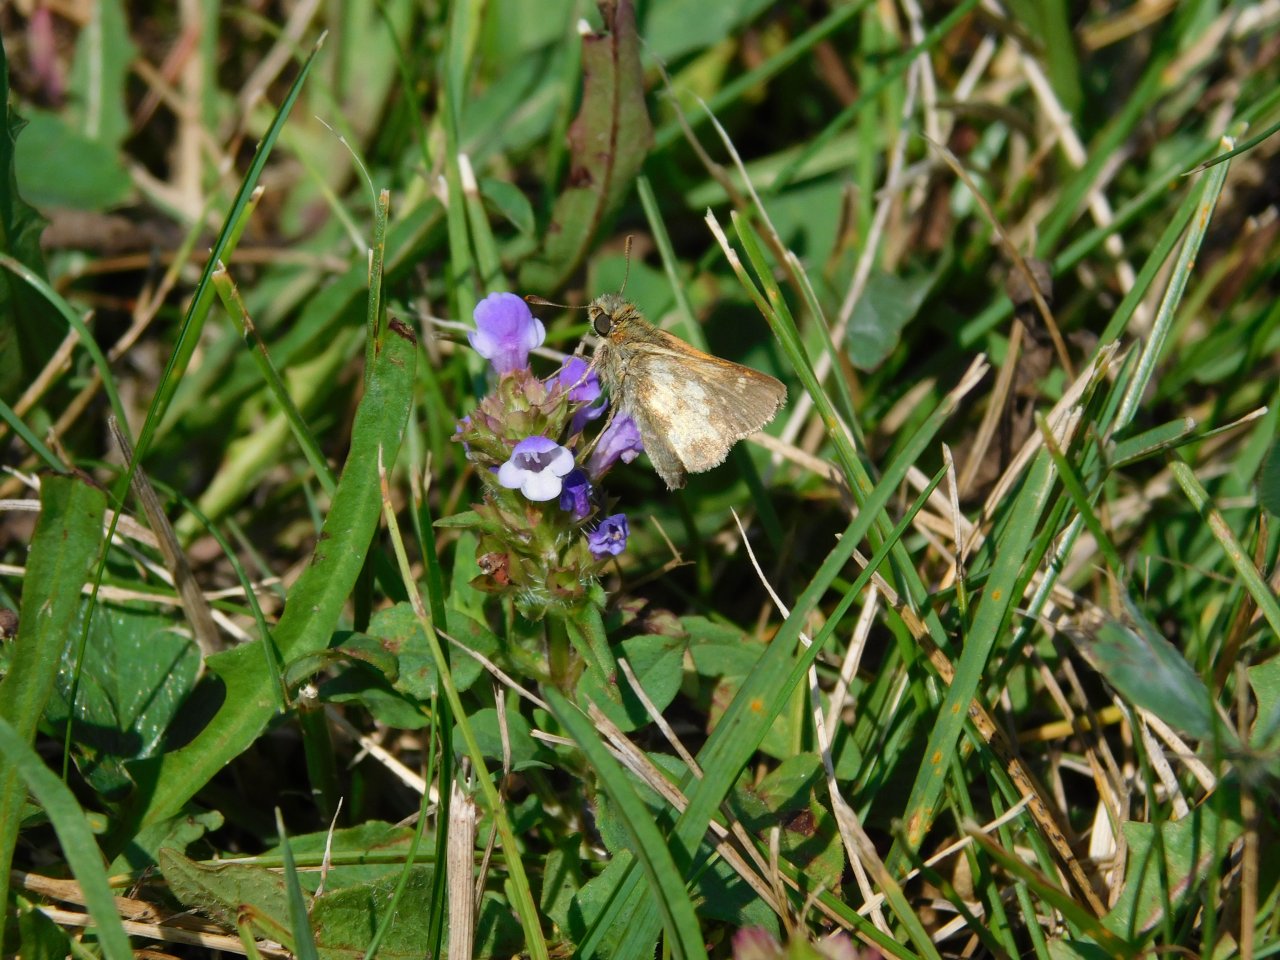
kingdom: Animalia
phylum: Arthropoda
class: Insecta
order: Lepidoptera
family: Hesperiidae
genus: Polites
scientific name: Polites coras
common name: Peck's Skipper
